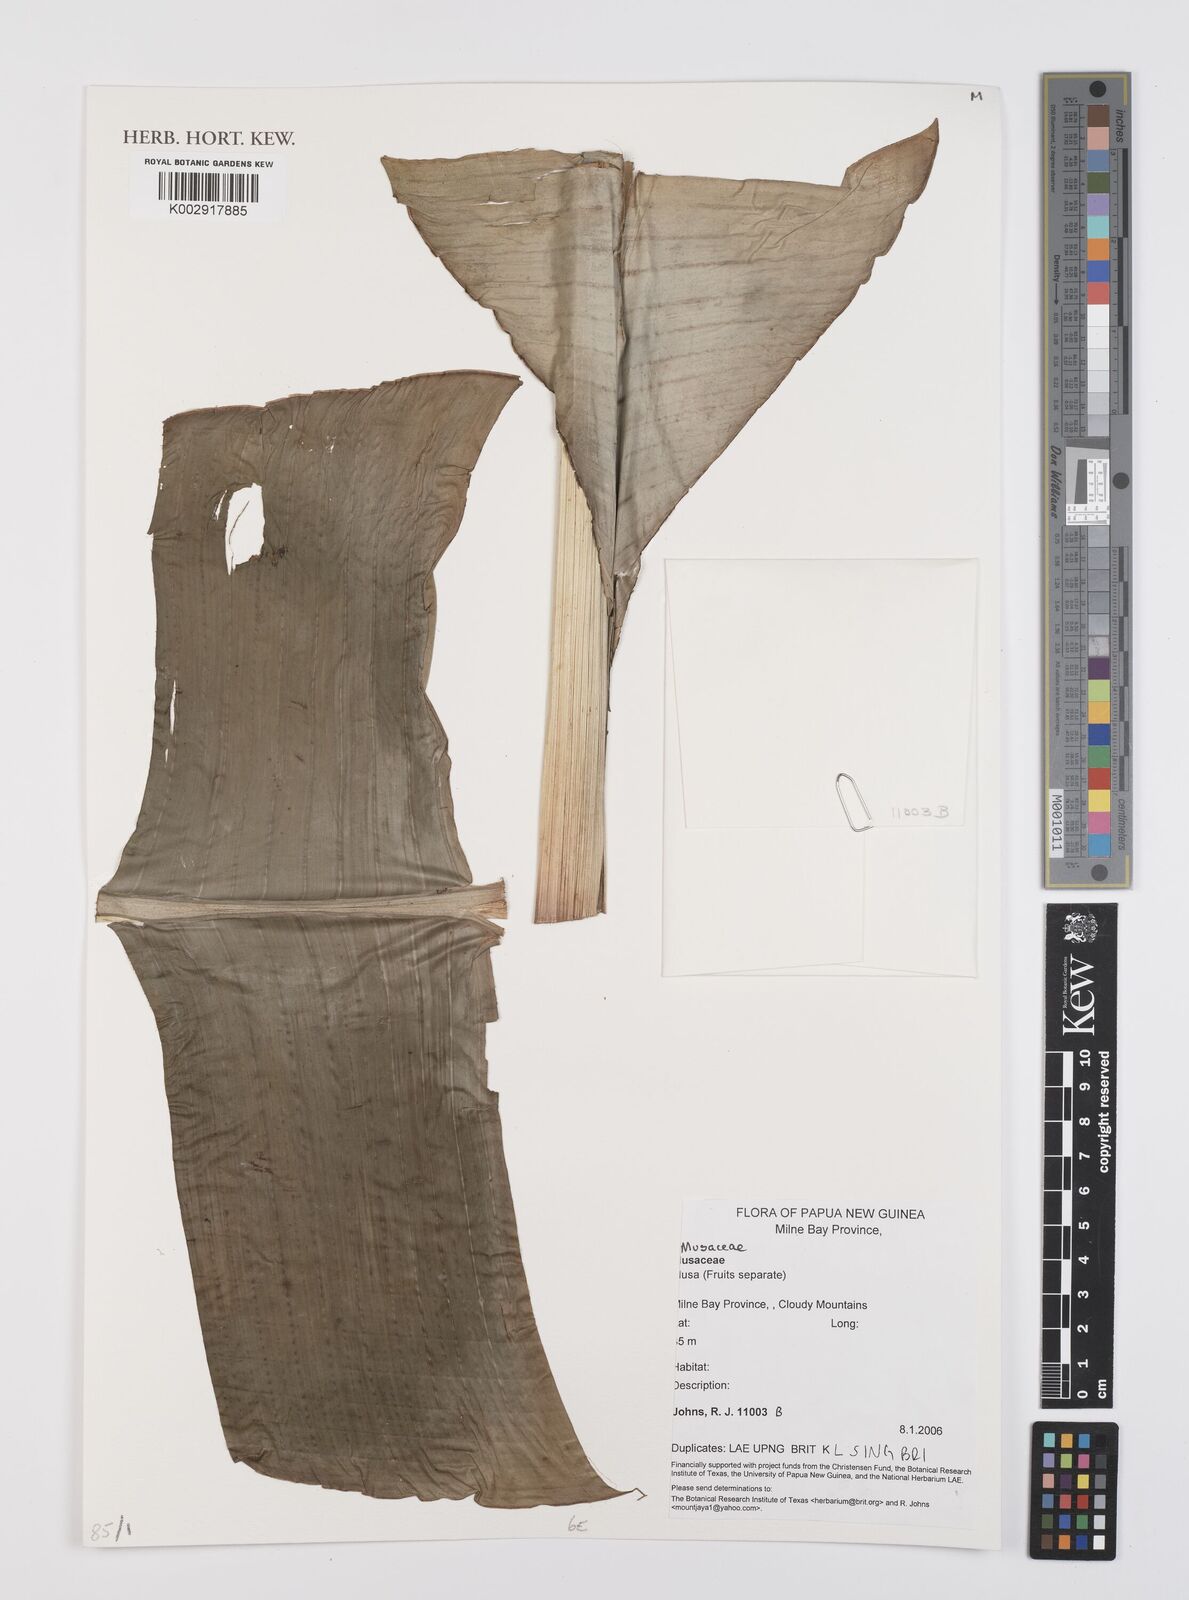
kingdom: Plantae
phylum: Tracheophyta
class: Liliopsida
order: Zingiberales
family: Musaceae
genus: Musa
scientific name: Musa
